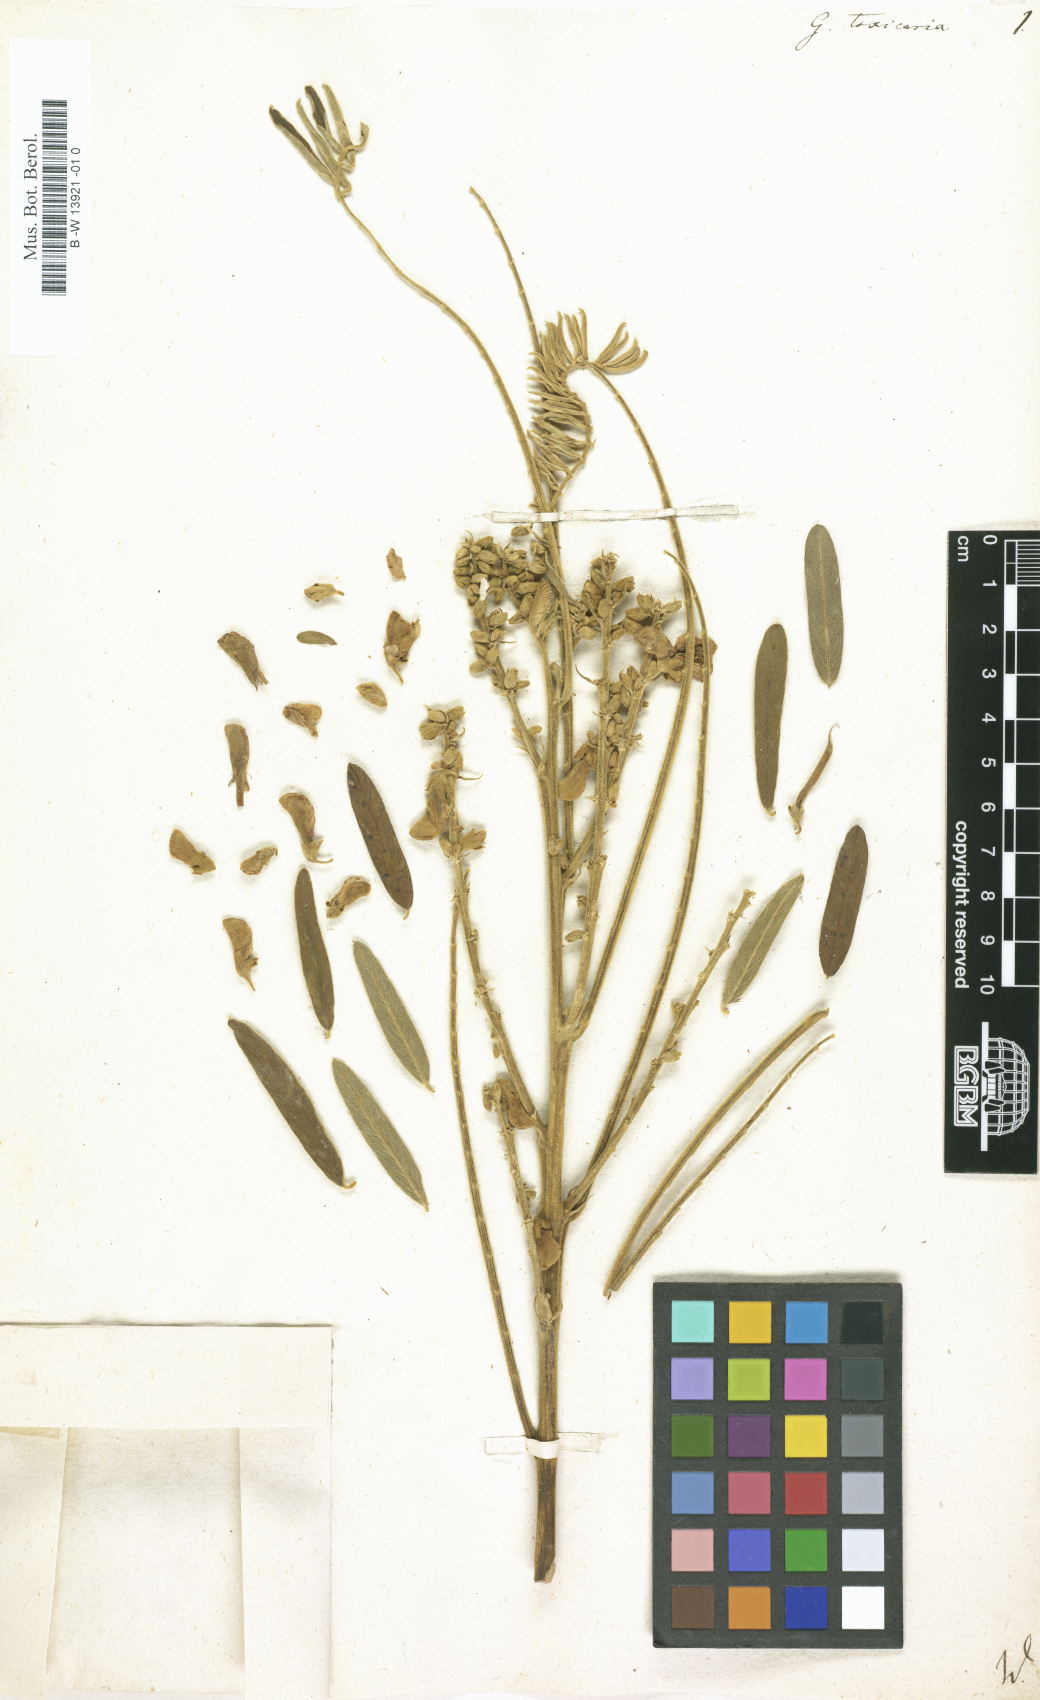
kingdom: Plantae
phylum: Tracheophyta
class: Magnoliopsida
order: Fabales
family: Fabaceae
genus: Tephrosia
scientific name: Tephrosia sinapou
